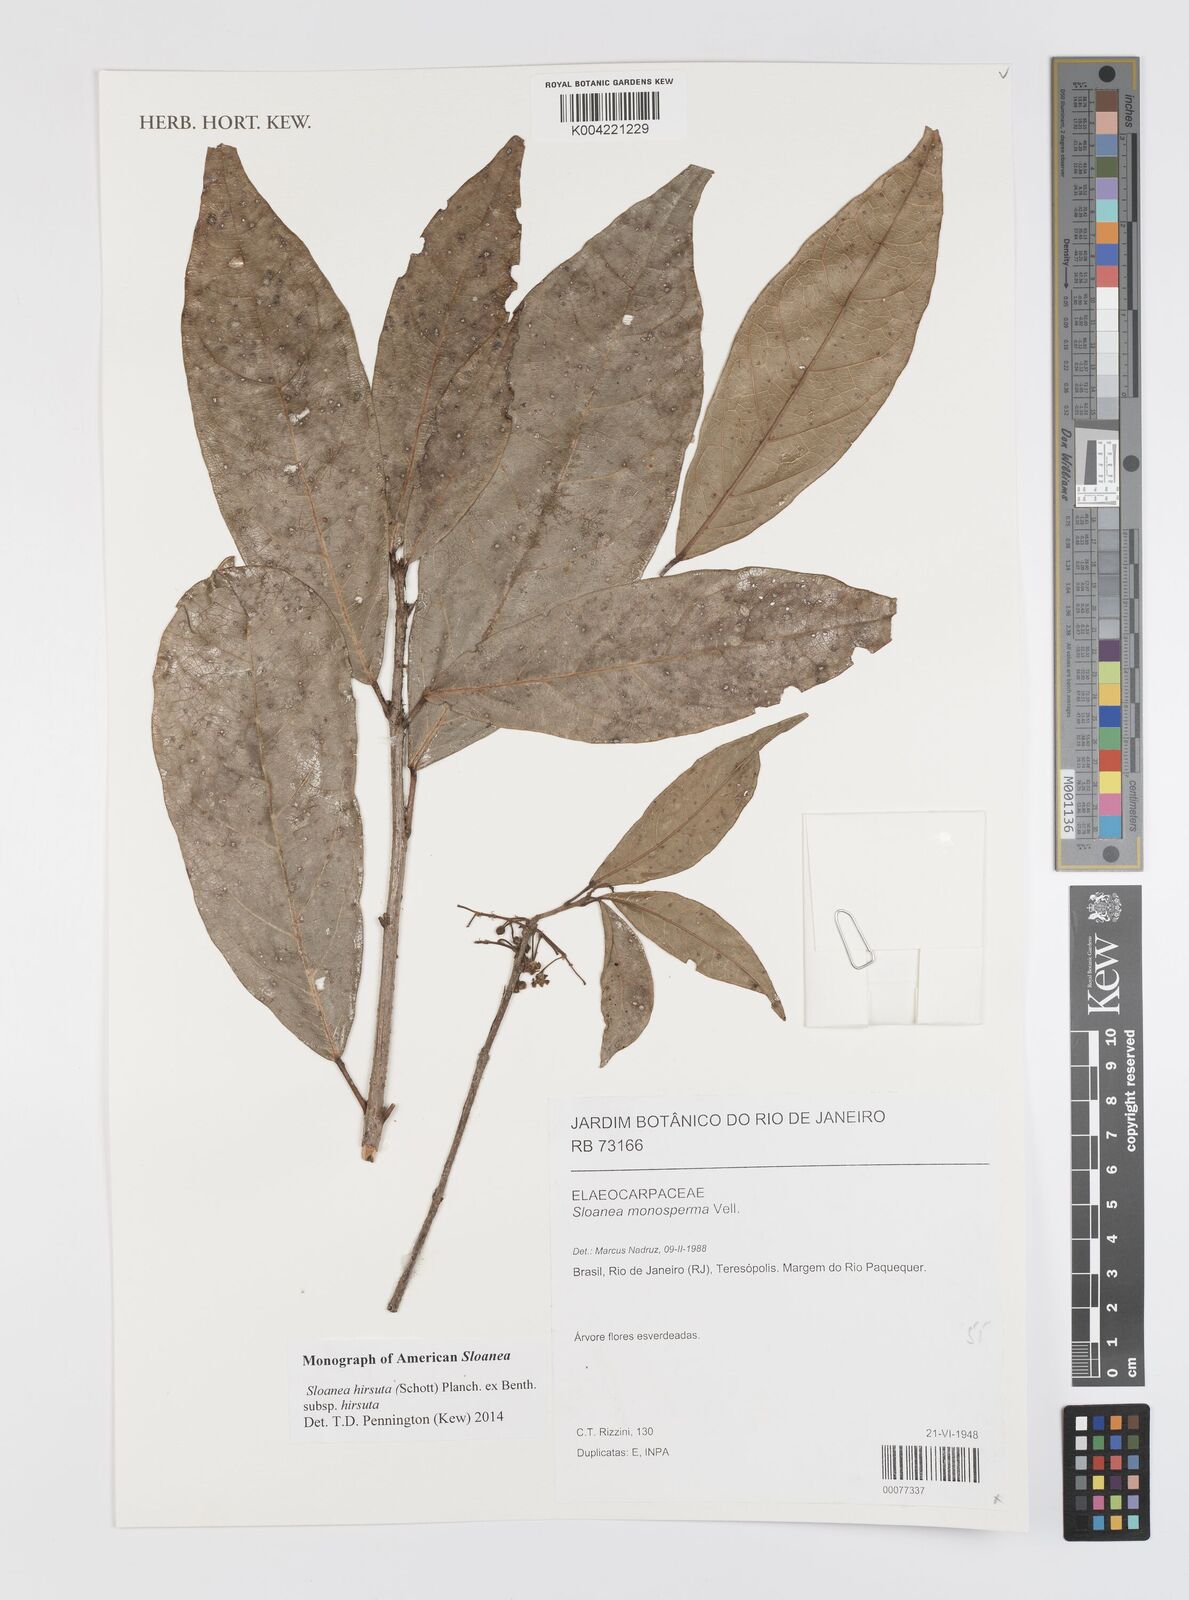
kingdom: Plantae
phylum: Tracheophyta
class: Magnoliopsida
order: Oxalidales
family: Elaeocarpaceae
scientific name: Elaeocarpaceae
